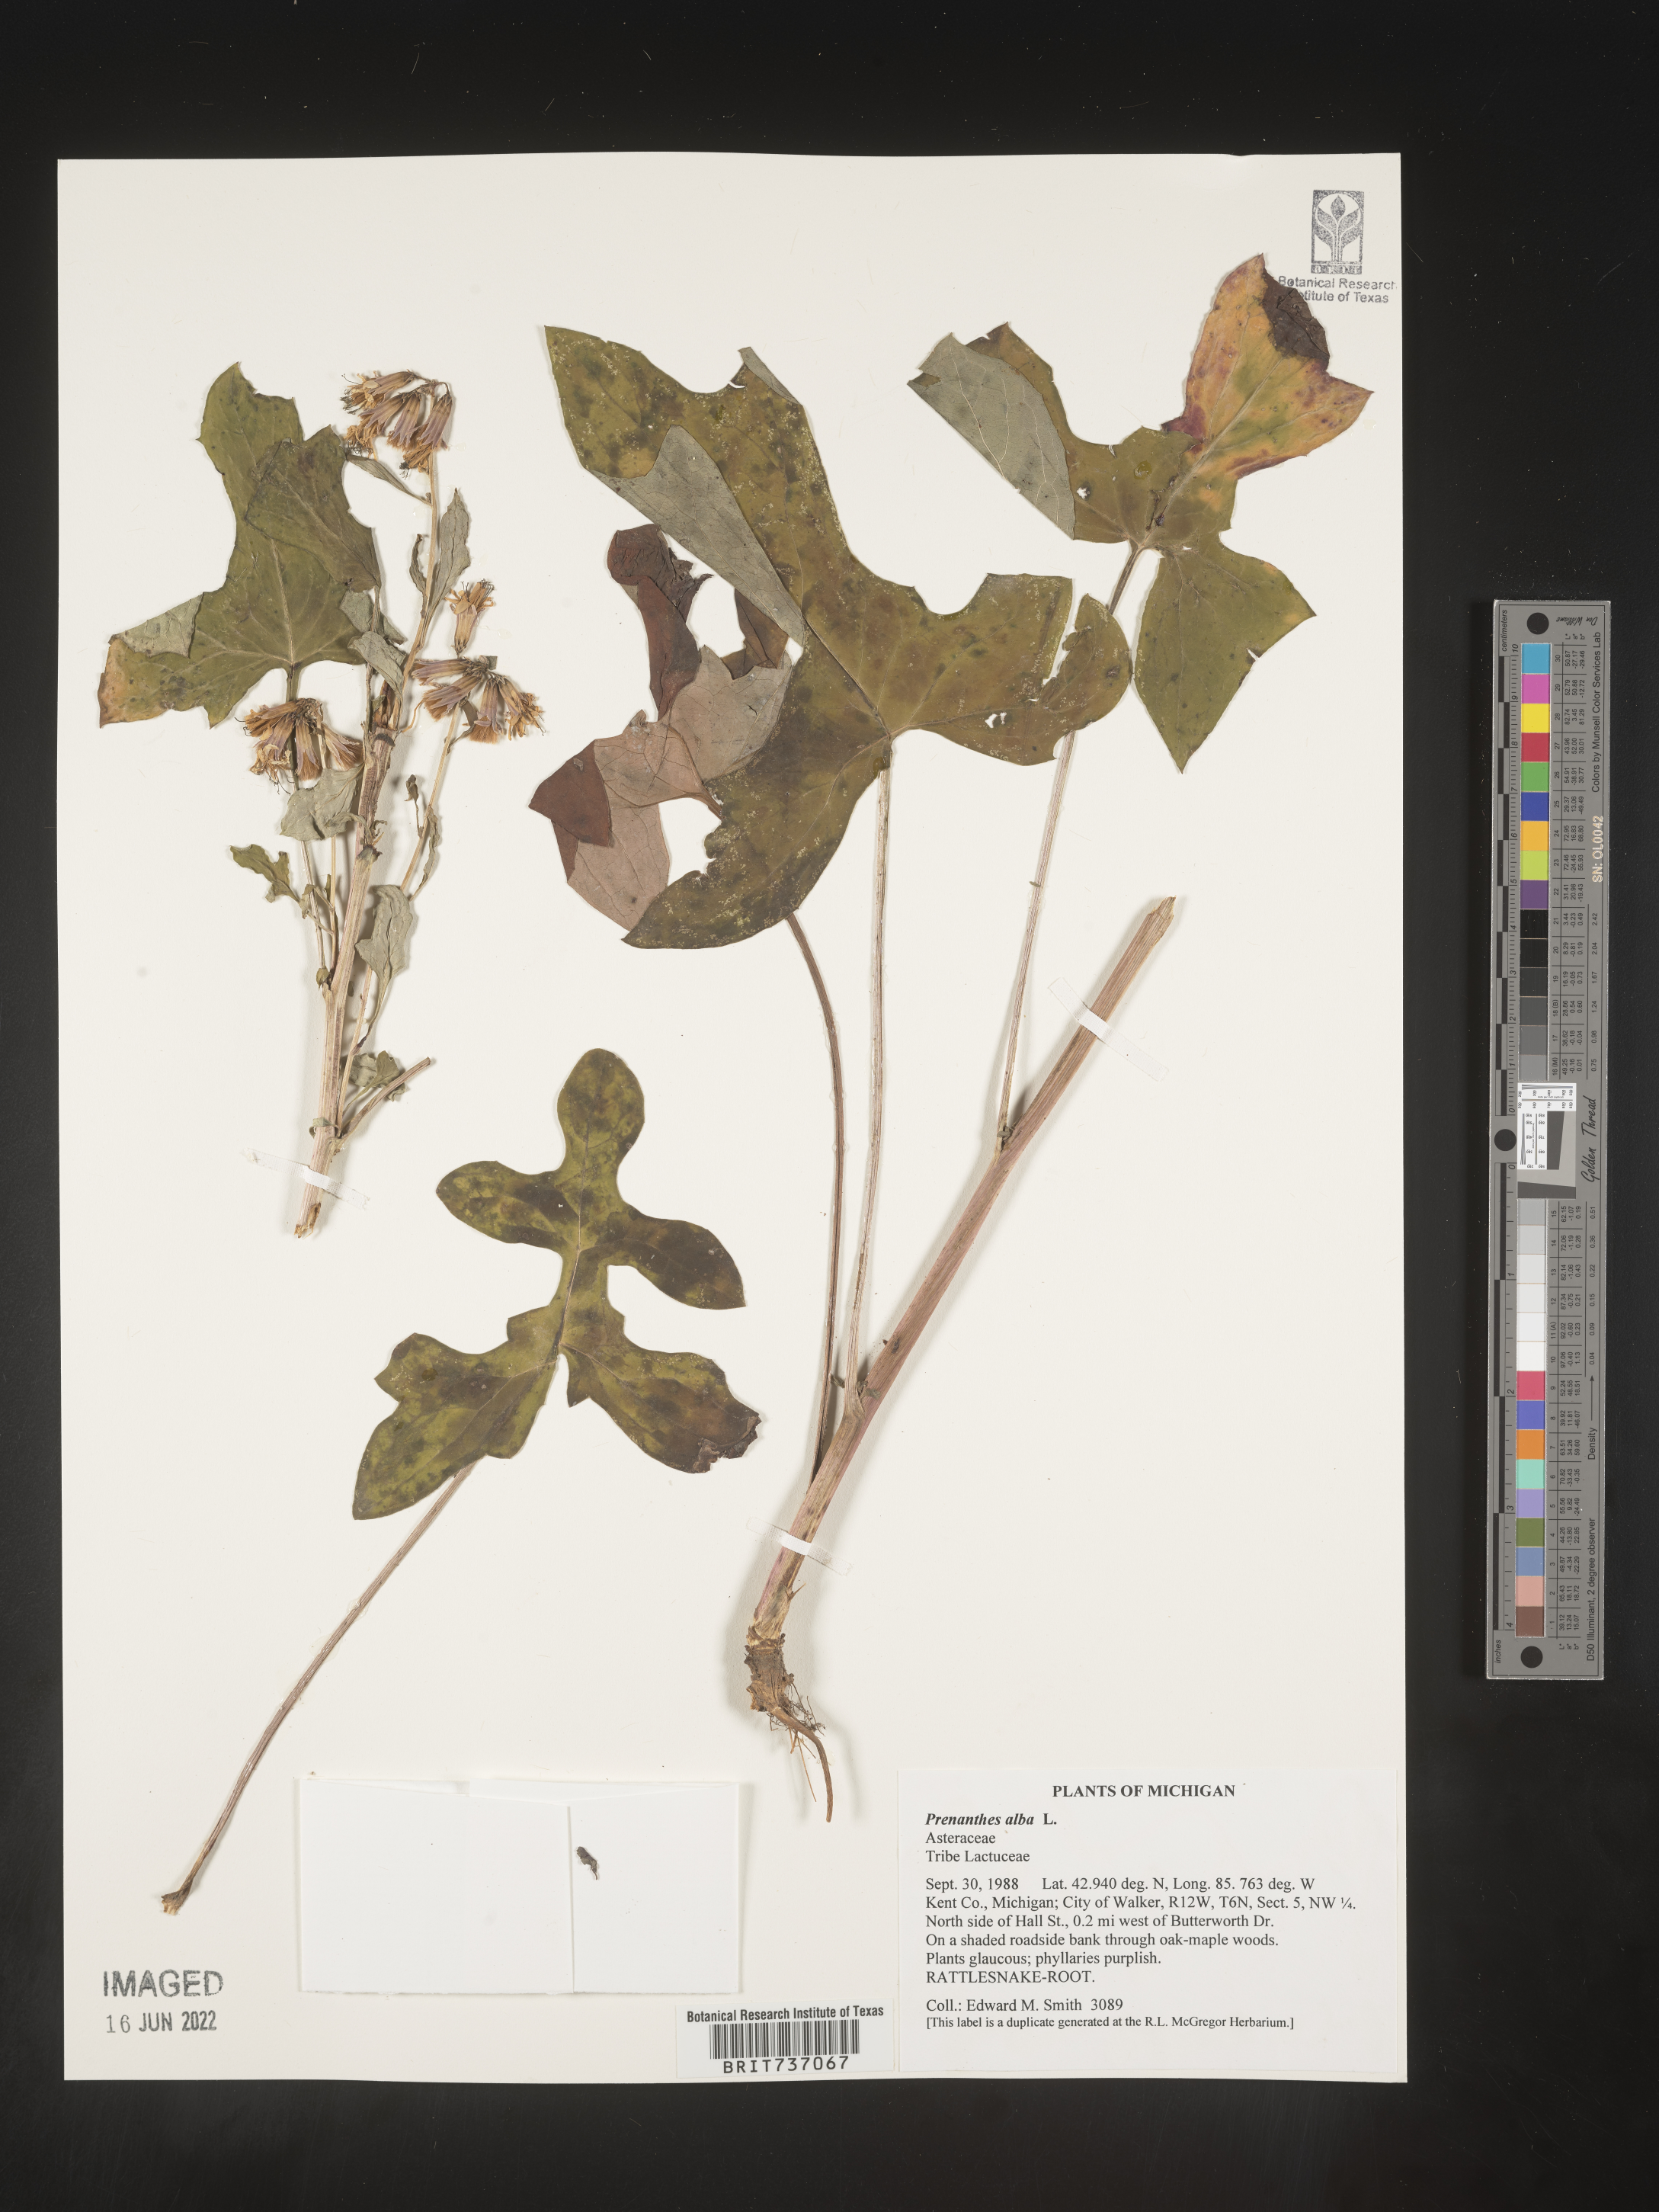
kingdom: Plantae
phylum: Tracheophyta
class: Magnoliopsida
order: Asterales
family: Asteraceae
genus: Nabalus
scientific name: Nabalus albus
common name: White rattlesnakeroot
